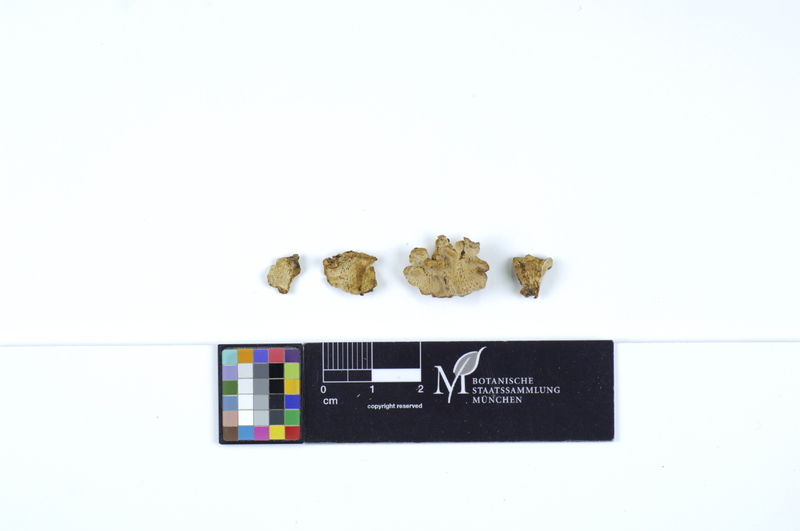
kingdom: Fungi
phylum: Basidiomycota
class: Agaricomycetes
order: Polyporales
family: Steccherinaceae
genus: Antrodiella
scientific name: Antrodiella onychoides
